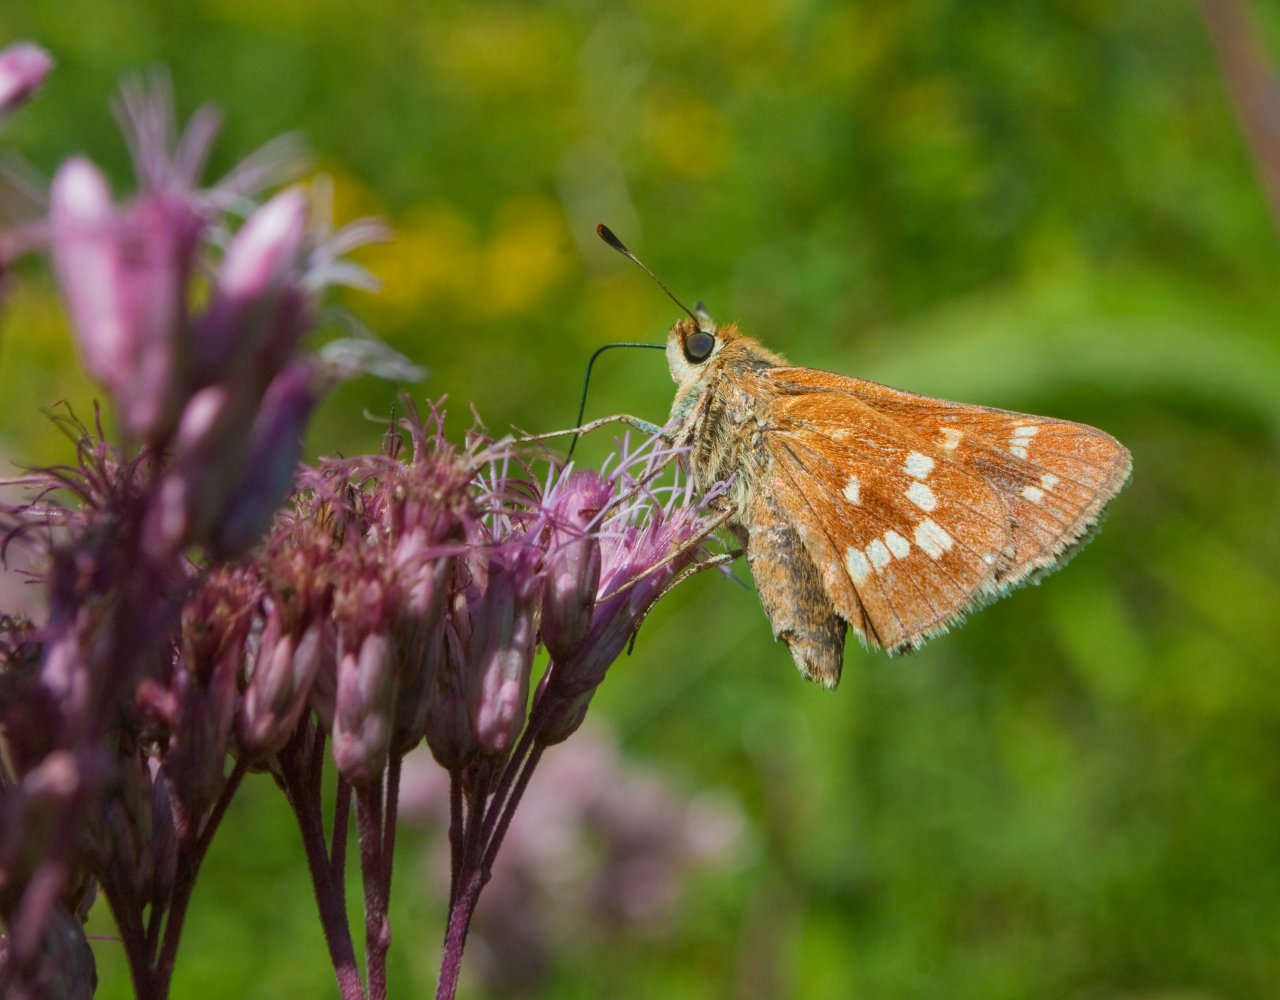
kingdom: Animalia
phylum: Arthropoda
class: Insecta
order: Lepidoptera
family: Hesperiidae
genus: Hesperia
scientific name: Hesperia leonardus
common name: Leonard's Skipper
